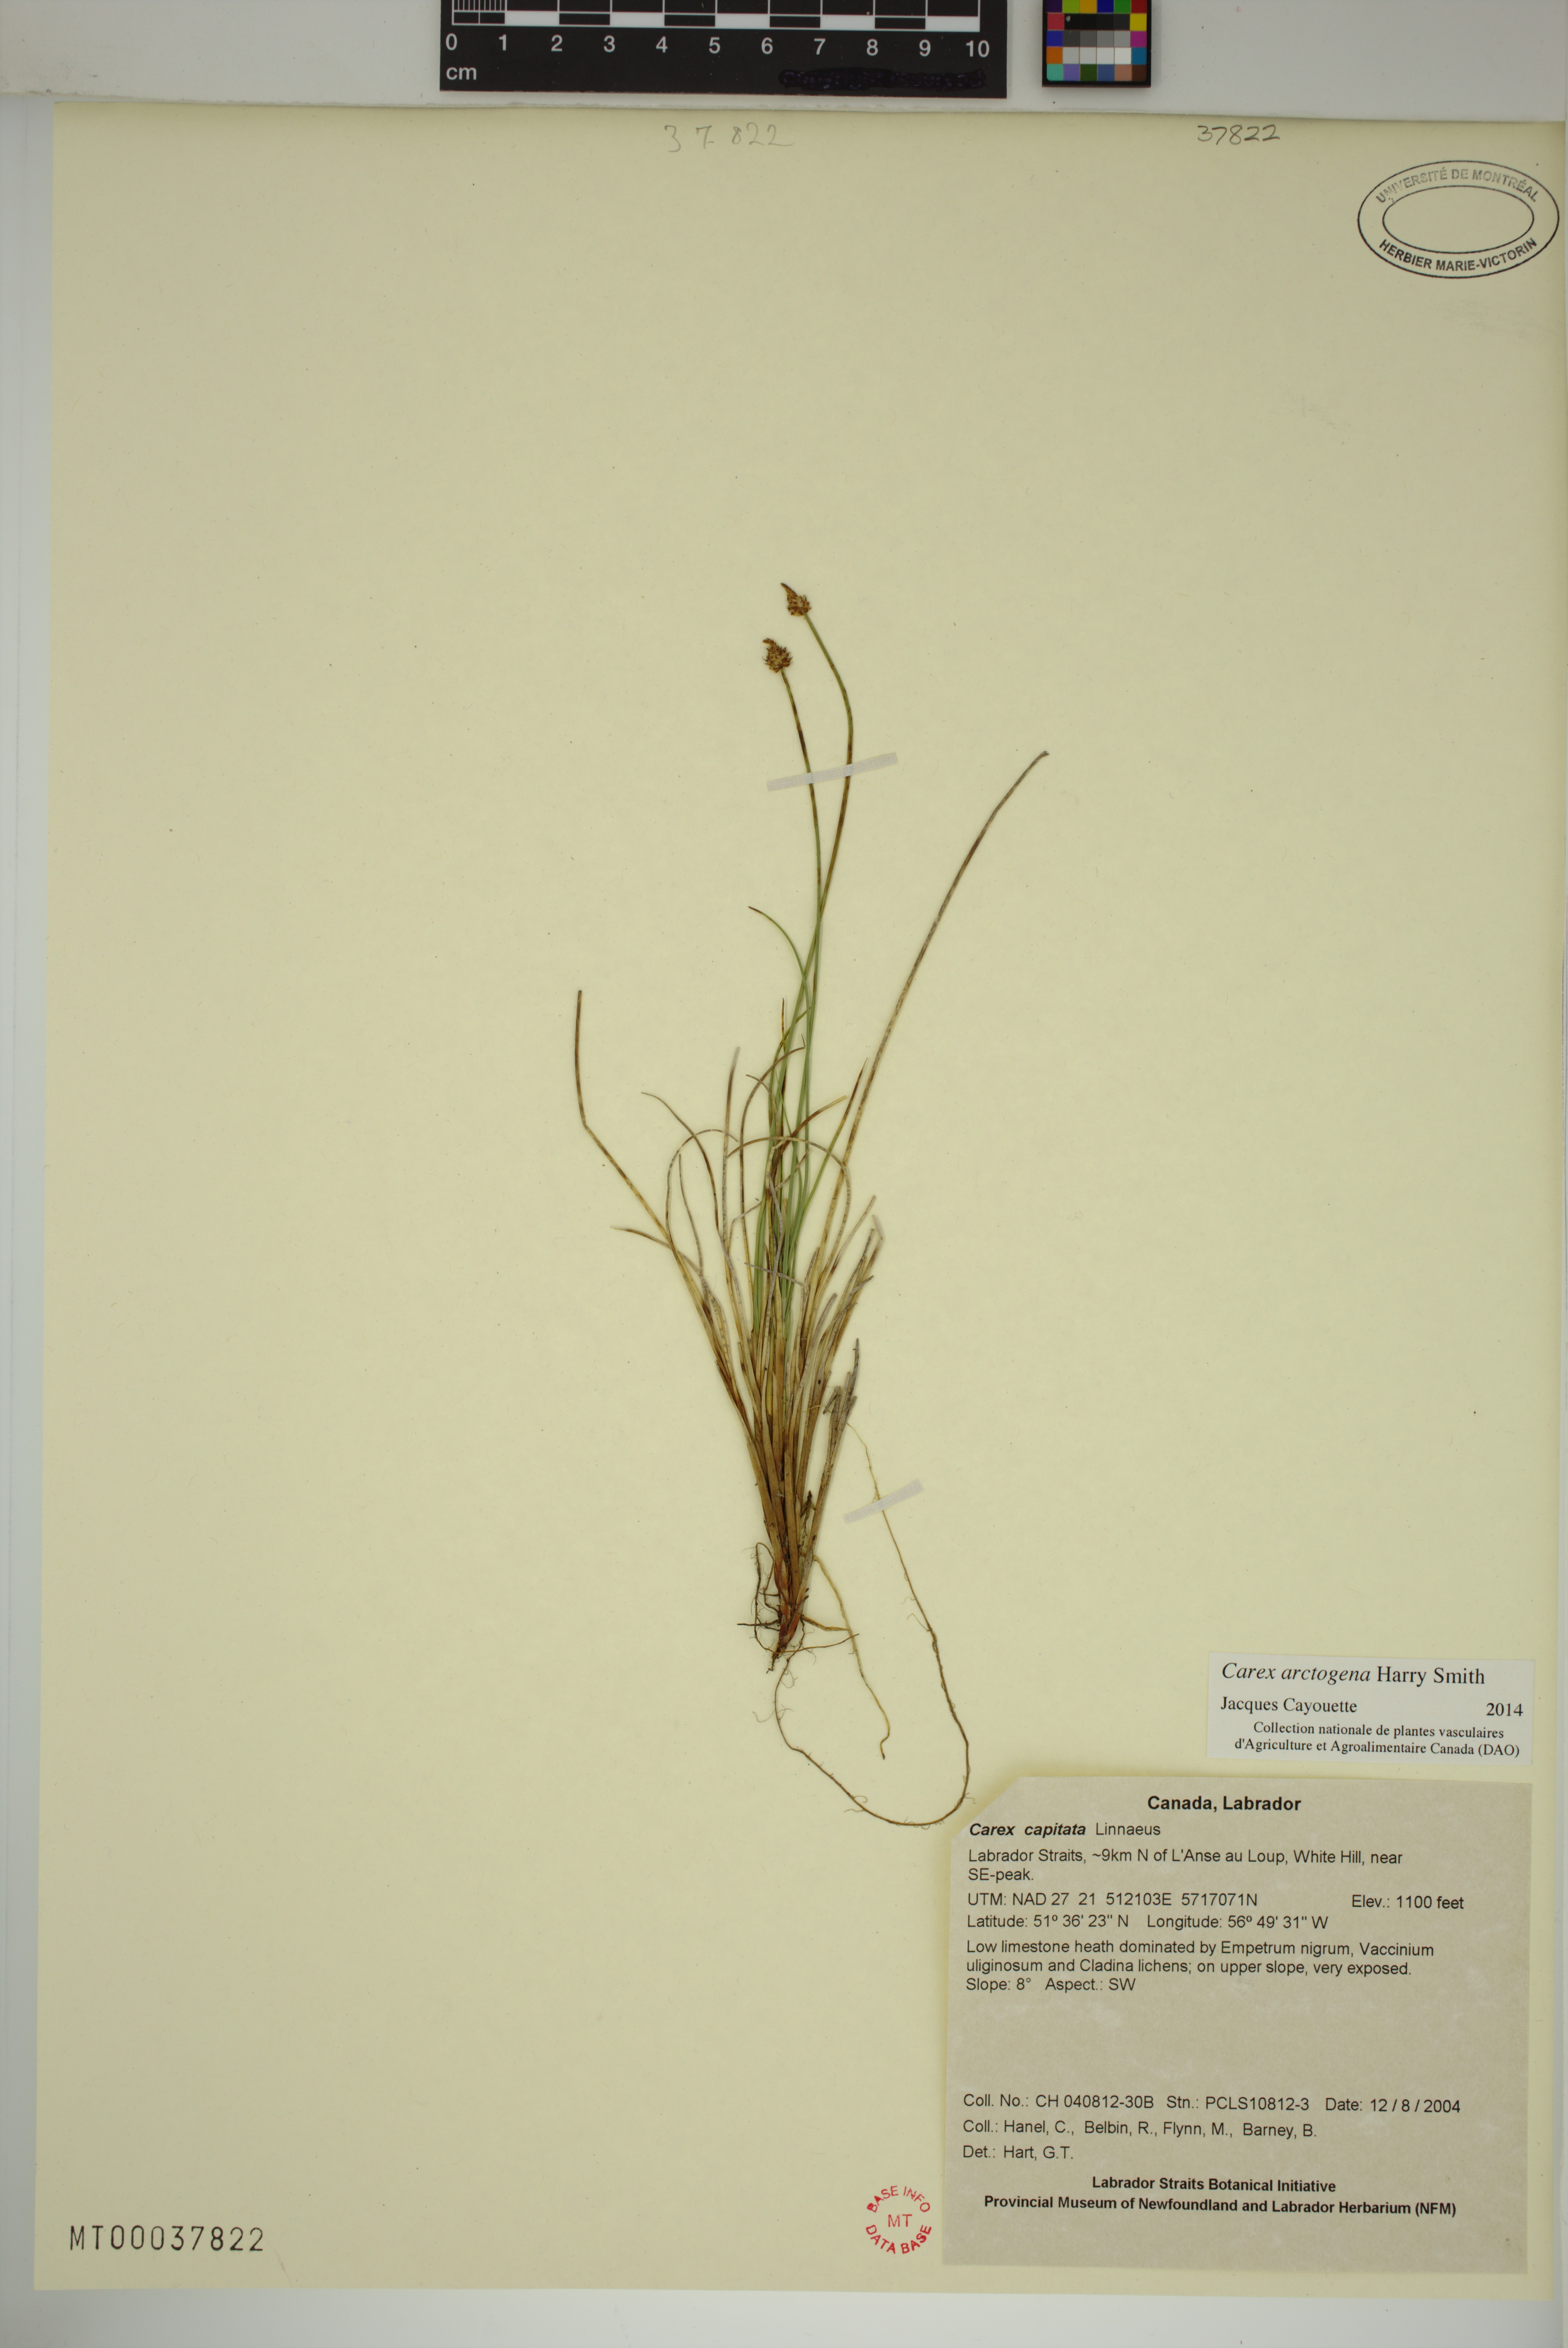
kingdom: Plantae
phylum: Tracheophyta
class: Liliopsida
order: Poales
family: Cyperaceae
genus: Carex
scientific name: Carex arctogena
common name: Black sedge
